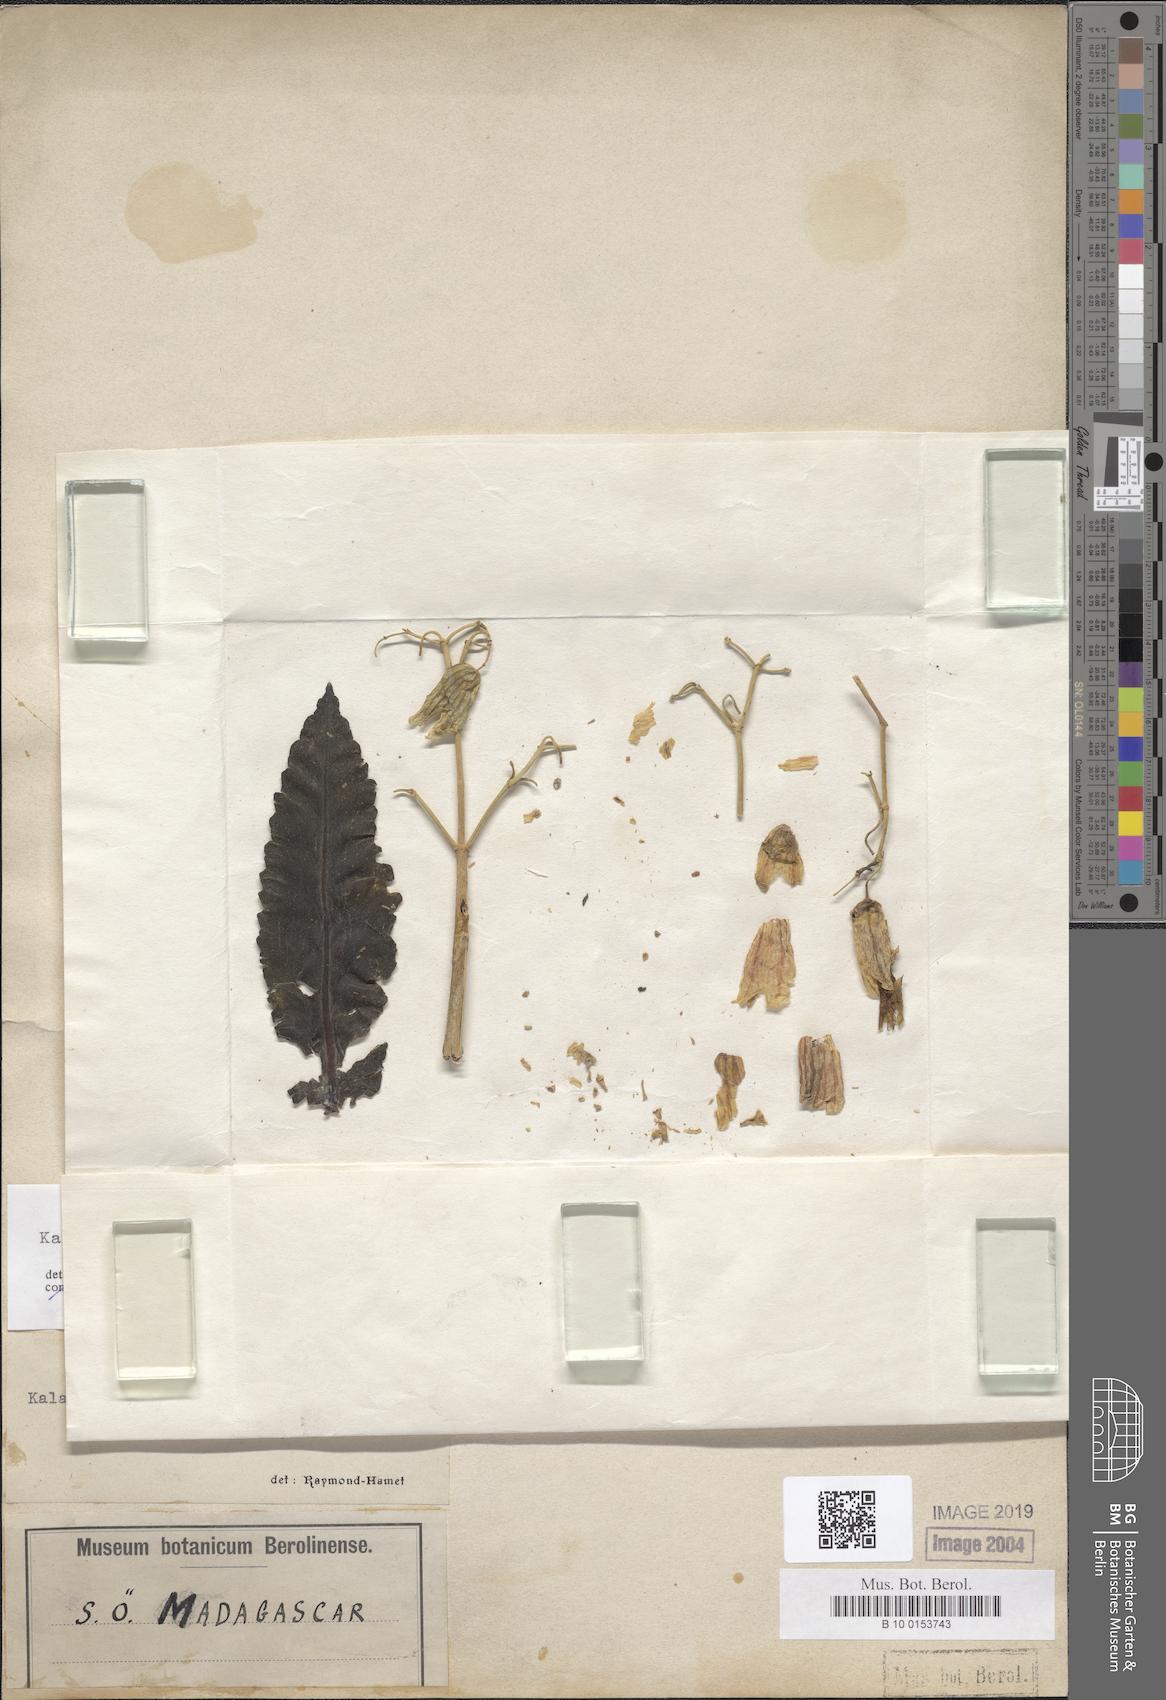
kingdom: Plantae
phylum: Tracheophyta
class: Magnoliopsida
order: Saxifragales
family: Crassulaceae
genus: Kalanchoe
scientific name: Kalanchoe gastonis-bonnieri
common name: Palm beachbells
